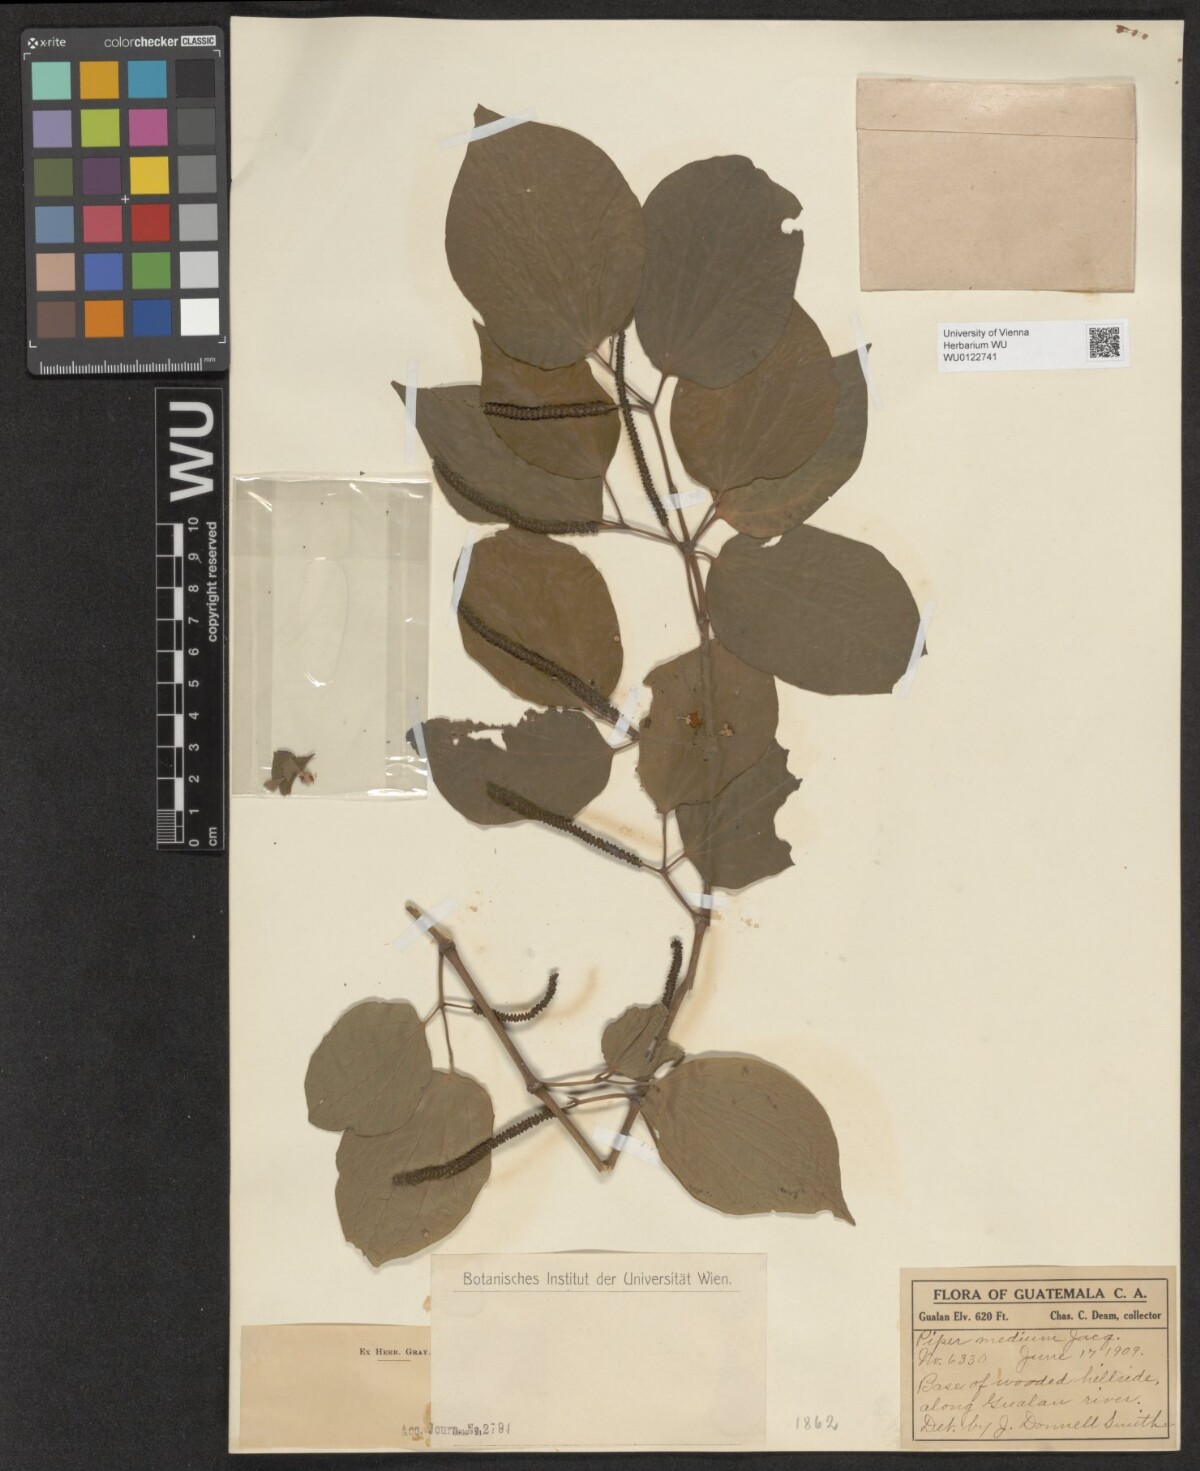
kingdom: Plantae
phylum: Tracheophyta
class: Magnoliopsida
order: Piperales
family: Piperaceae
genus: Piper
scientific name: Piper amalago
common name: Pepper-elder
